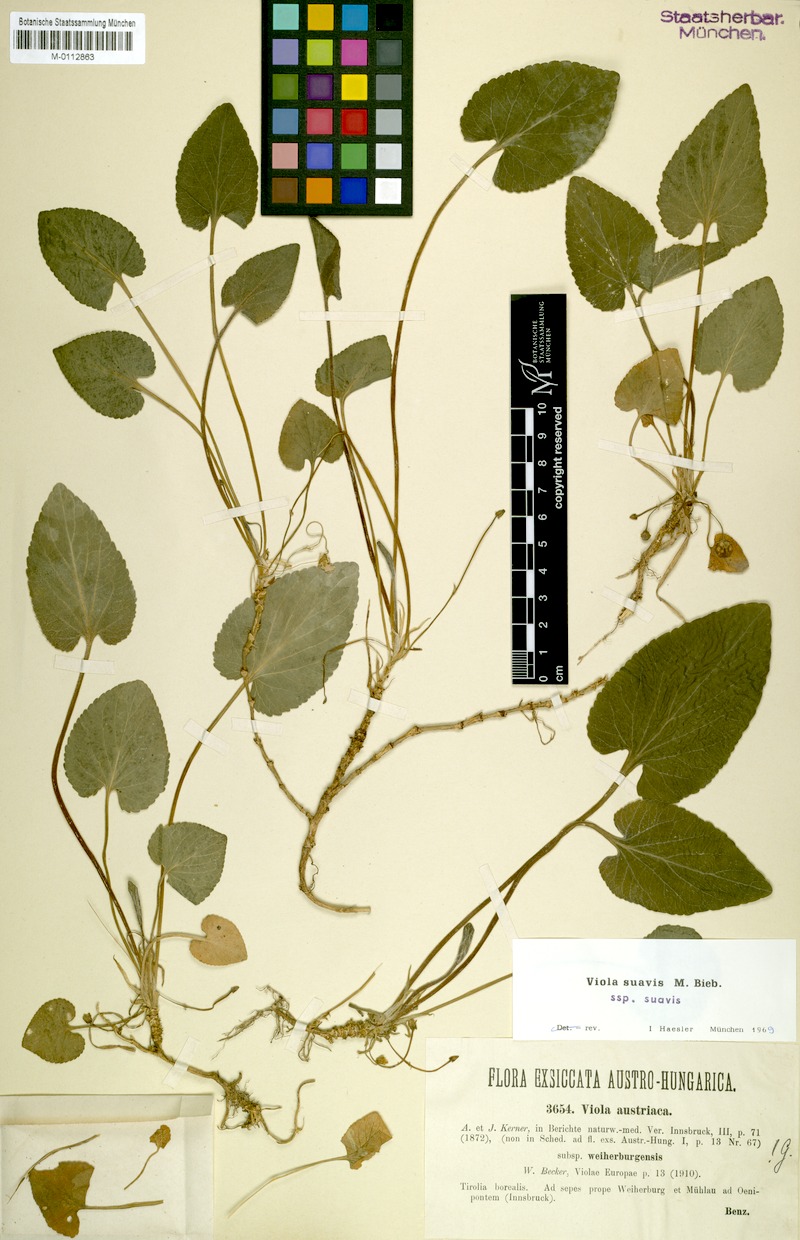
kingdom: Plantae
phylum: Tracheophyta
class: Magnoliopsida
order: Malpighiales
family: Violaceae
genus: Viola
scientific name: Viola suavis
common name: Russian violet
